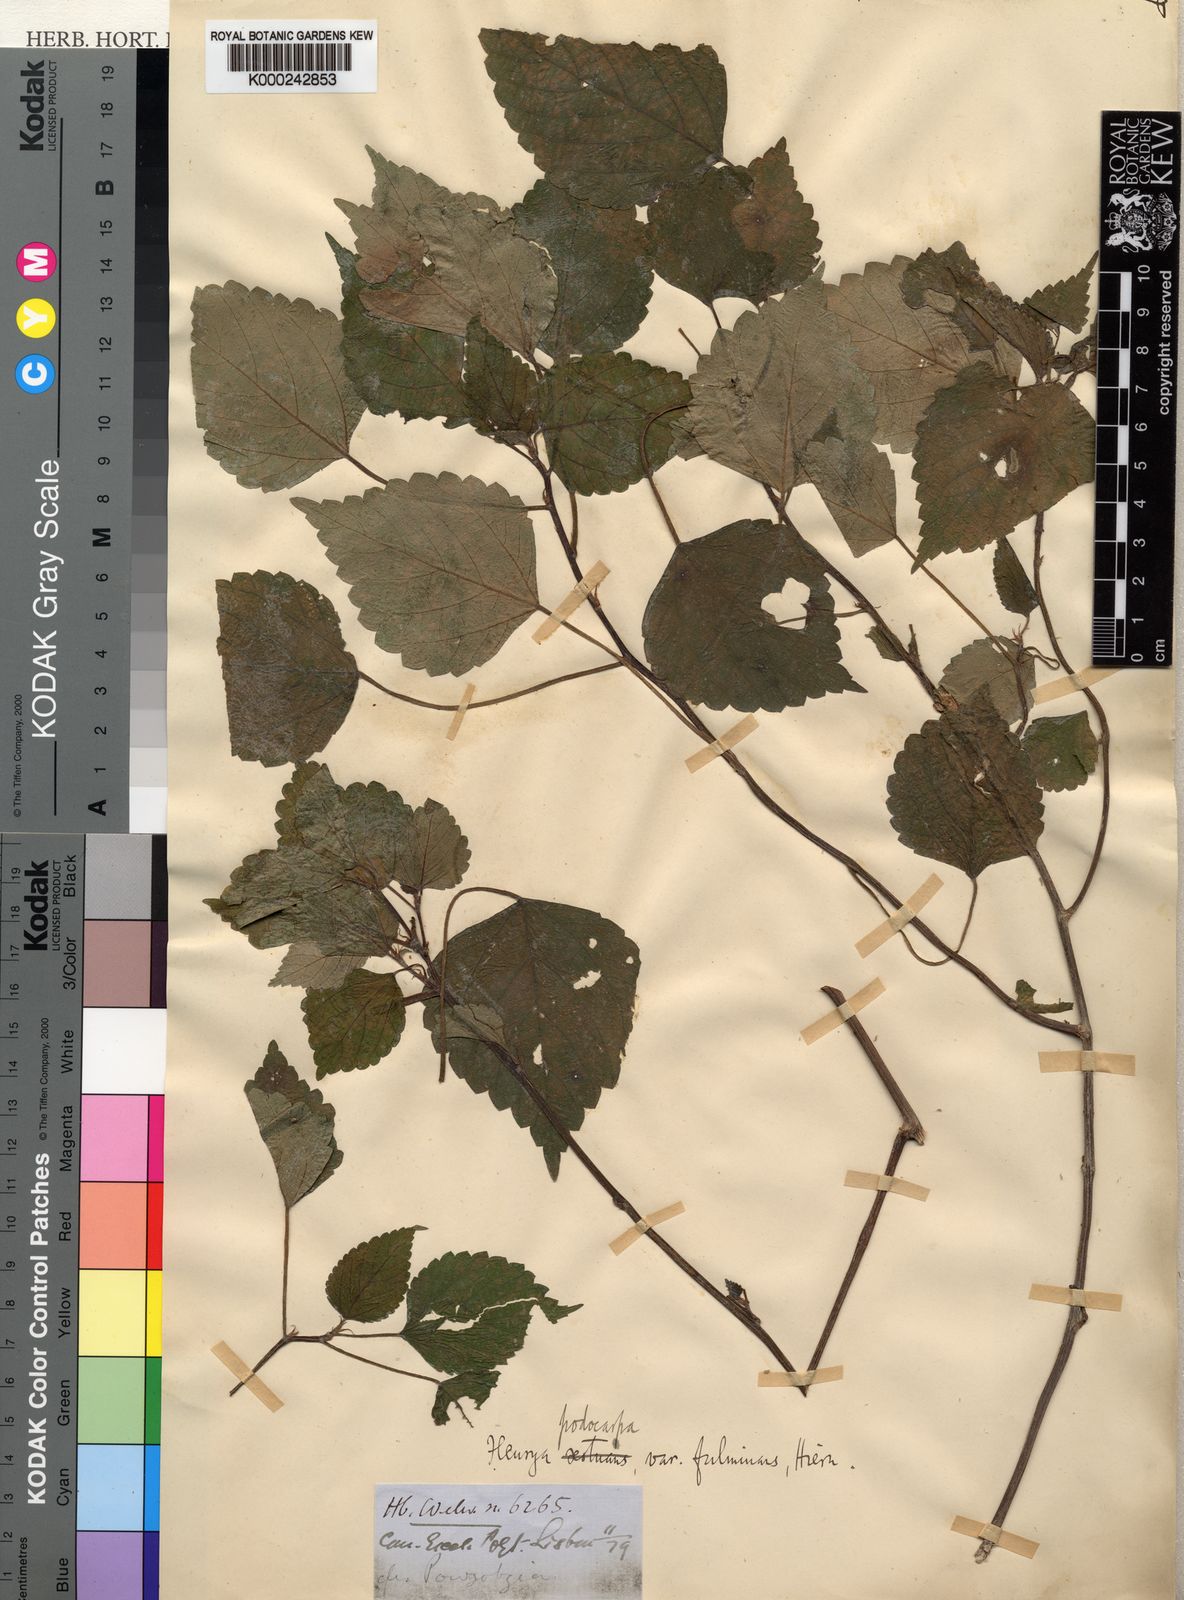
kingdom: Plantae
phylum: Tracheophyta
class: Magnoliopsida
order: Rosales
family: Urticaceae
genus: Laportea
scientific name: Laportea ovalifolia
